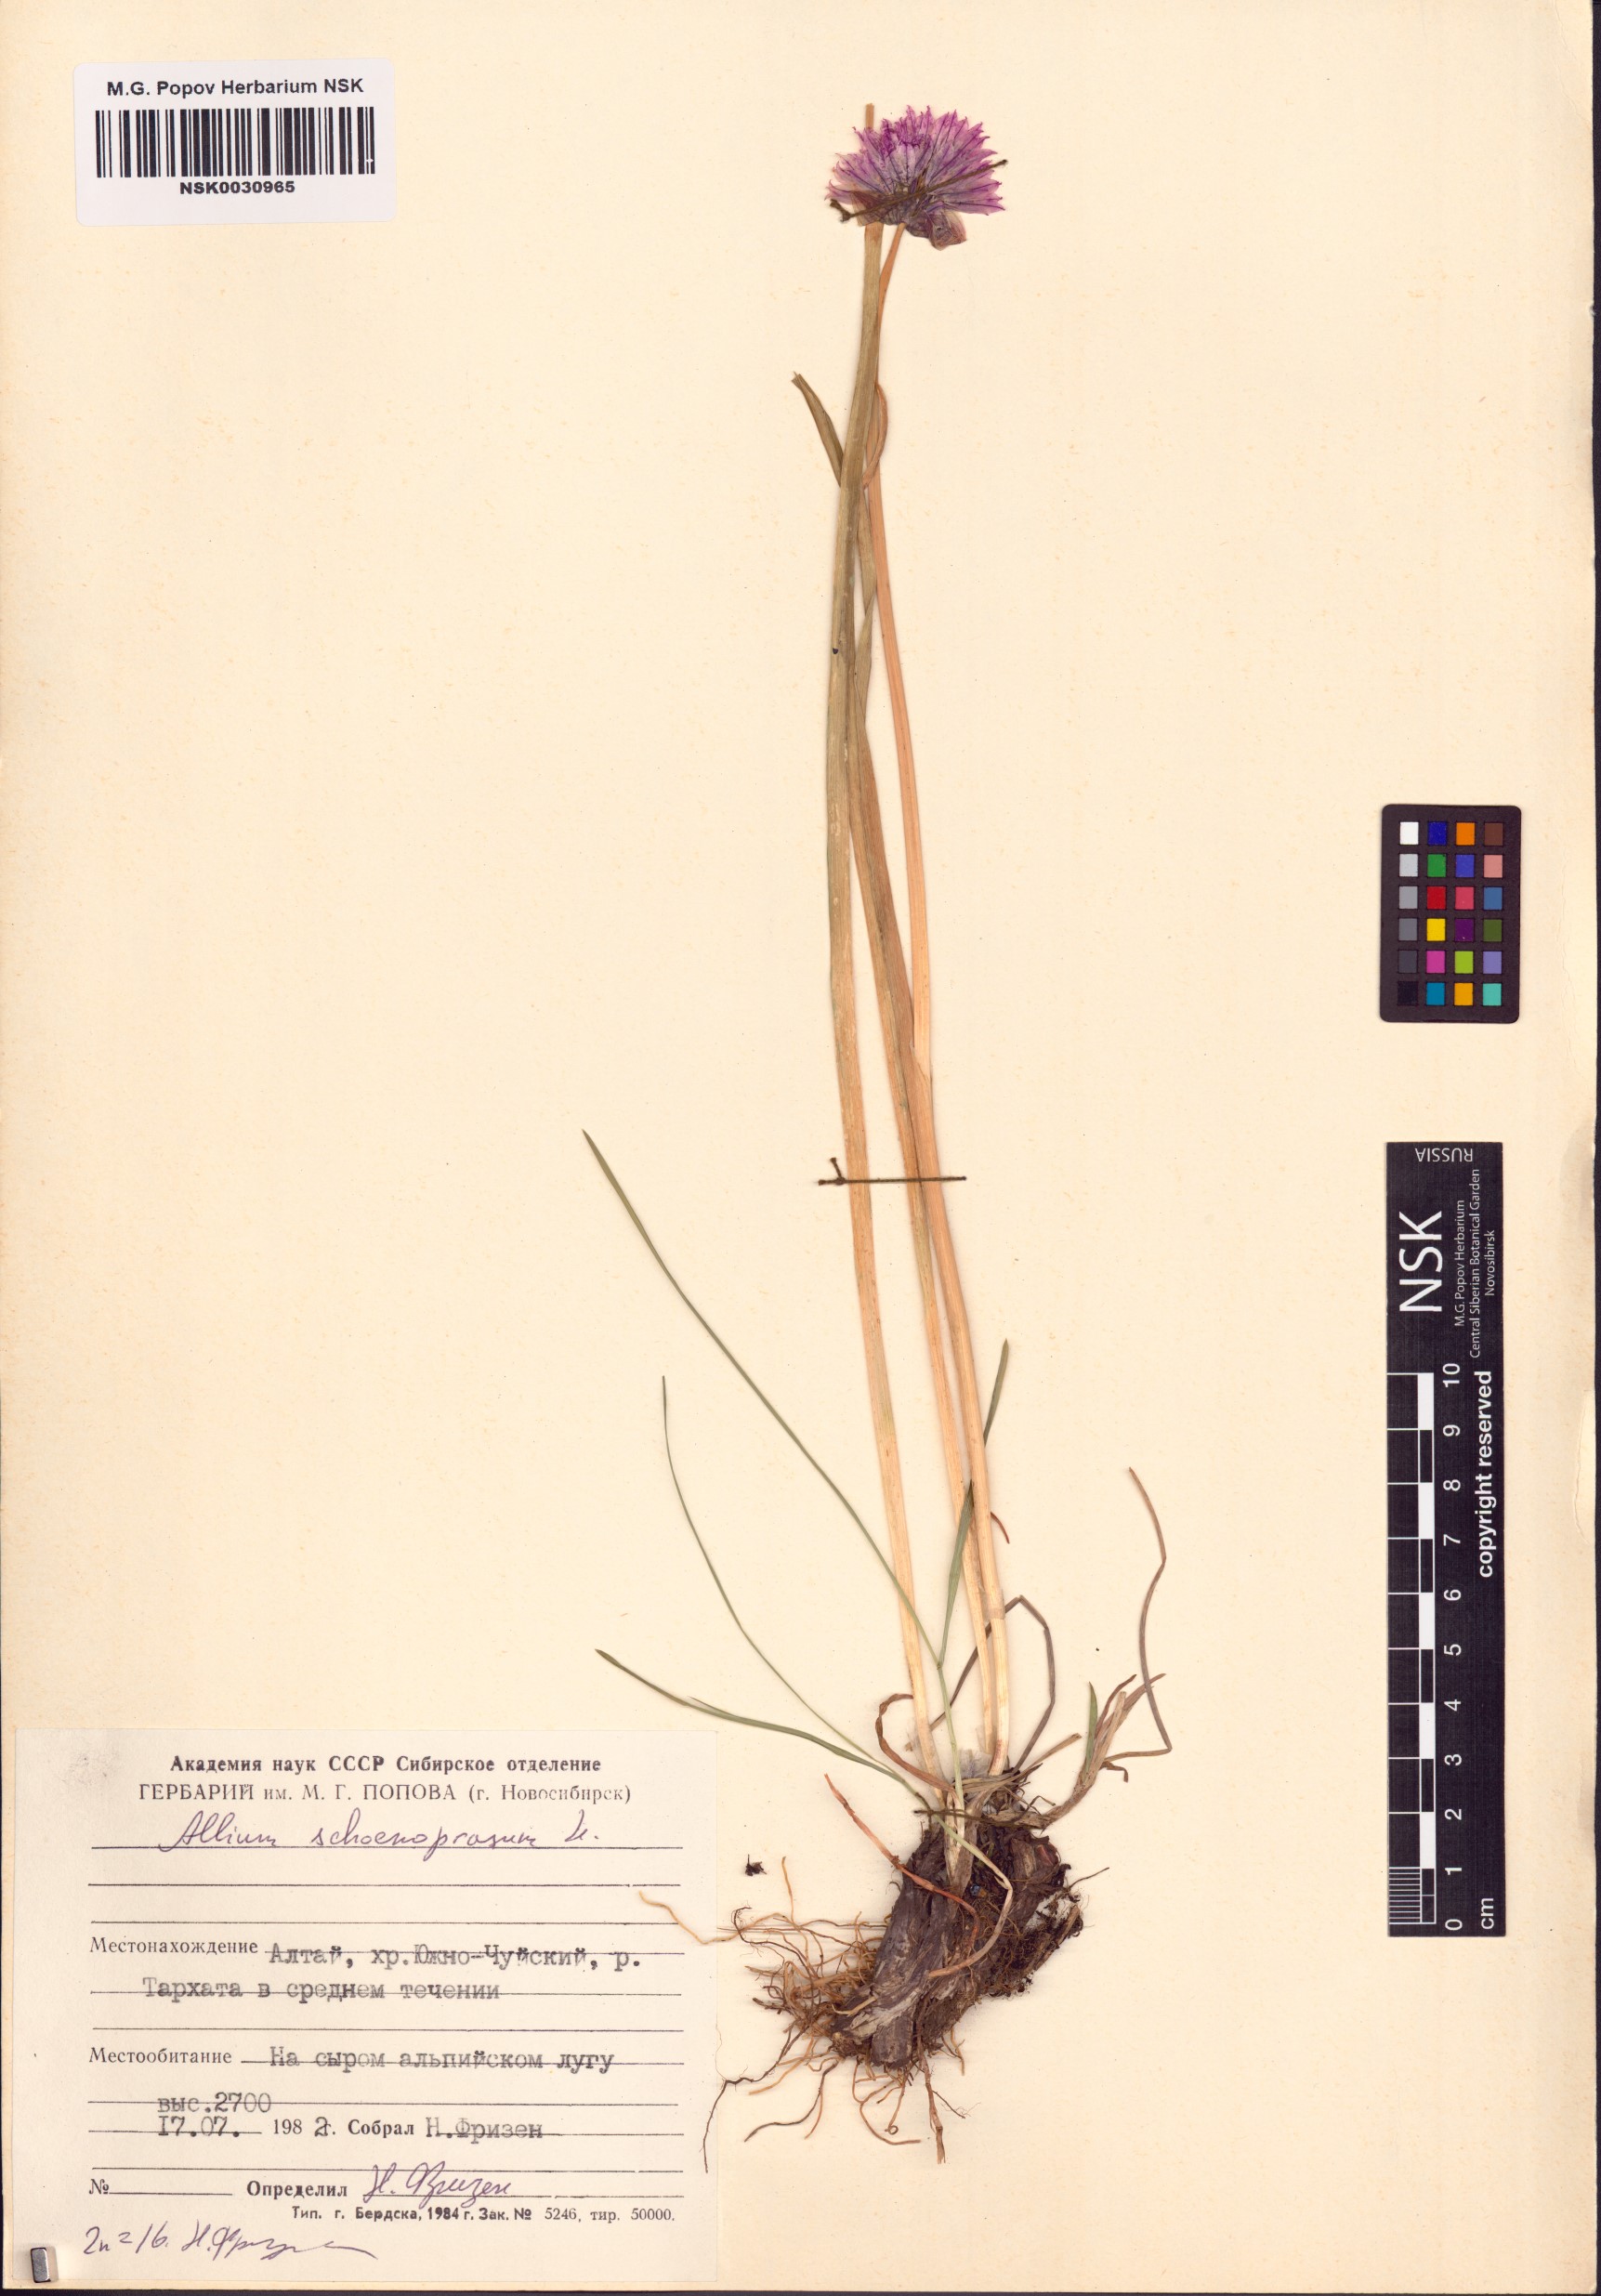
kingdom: Plantae
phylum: Tracheophyta
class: Liliopsida
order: Asparagales
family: Amaryllidaceae
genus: Allium
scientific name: Allium schoenoprasum
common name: Chives
